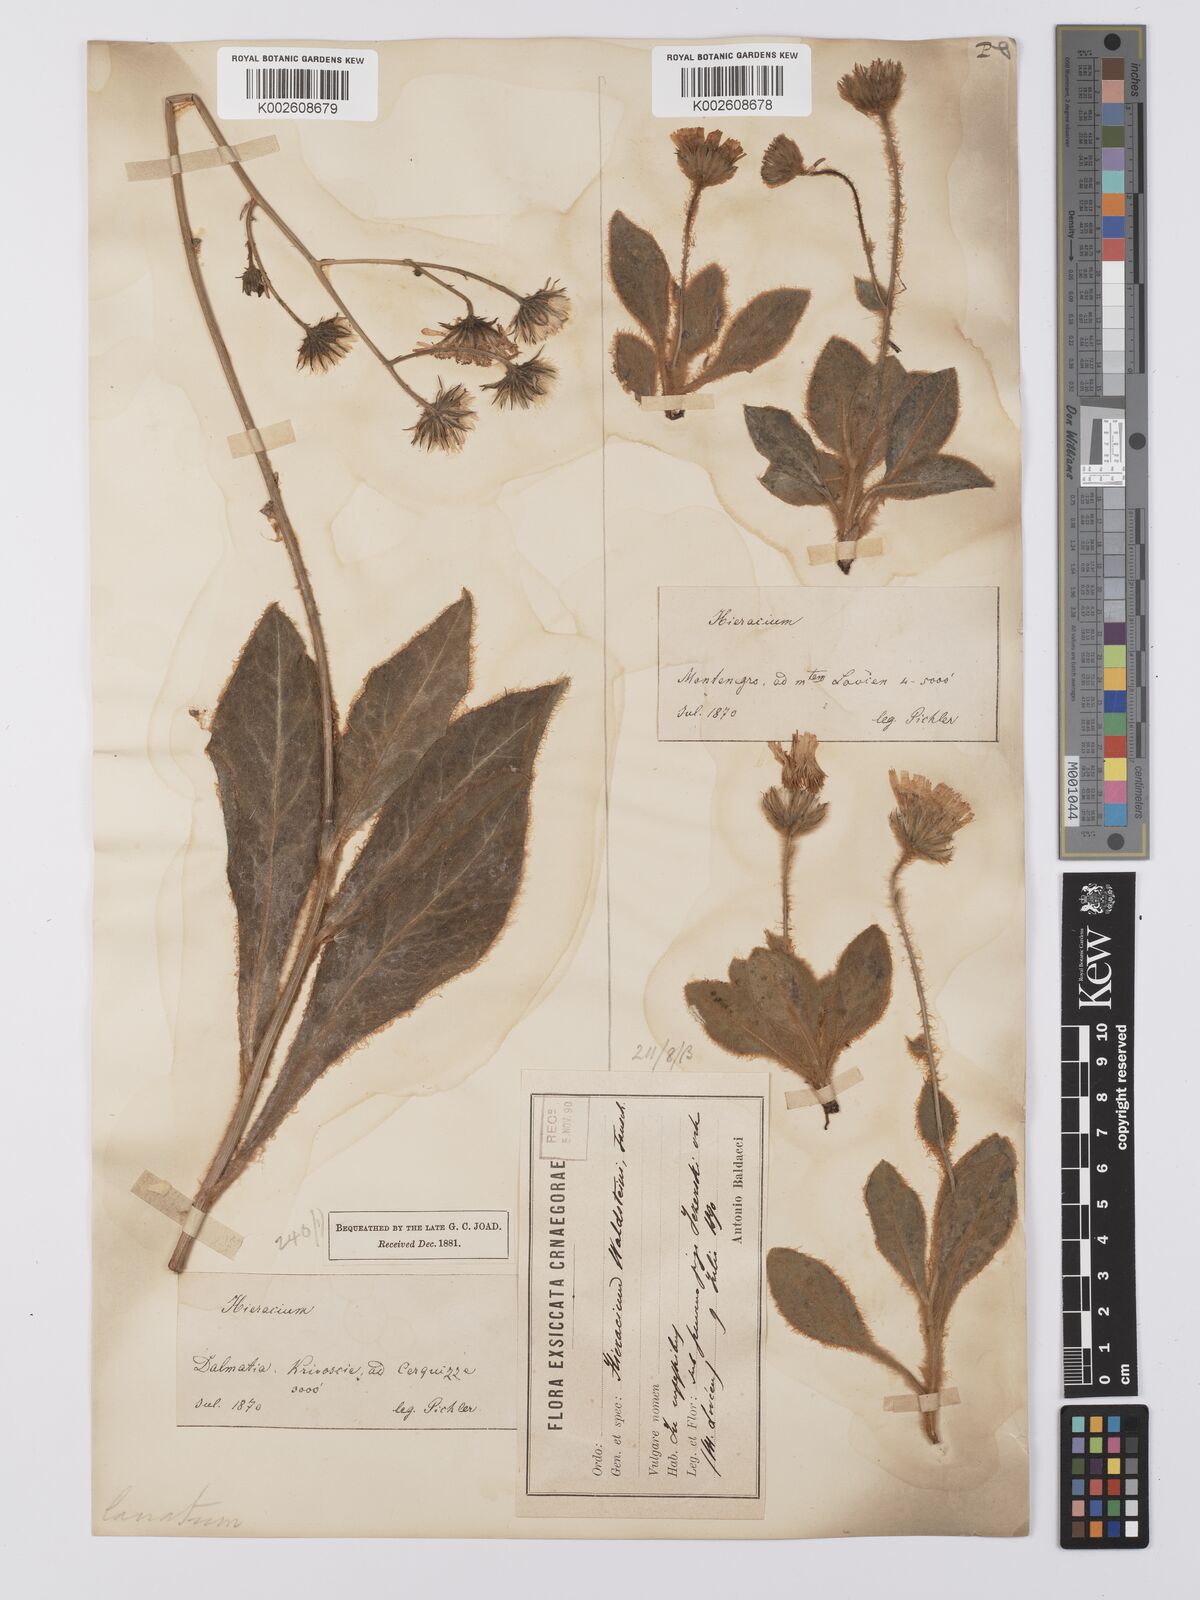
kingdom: Plantae
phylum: Tracheophyta
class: Magnoliopsida
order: Asterales
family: Asteraceae
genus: Hieracium
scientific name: Hieracium
